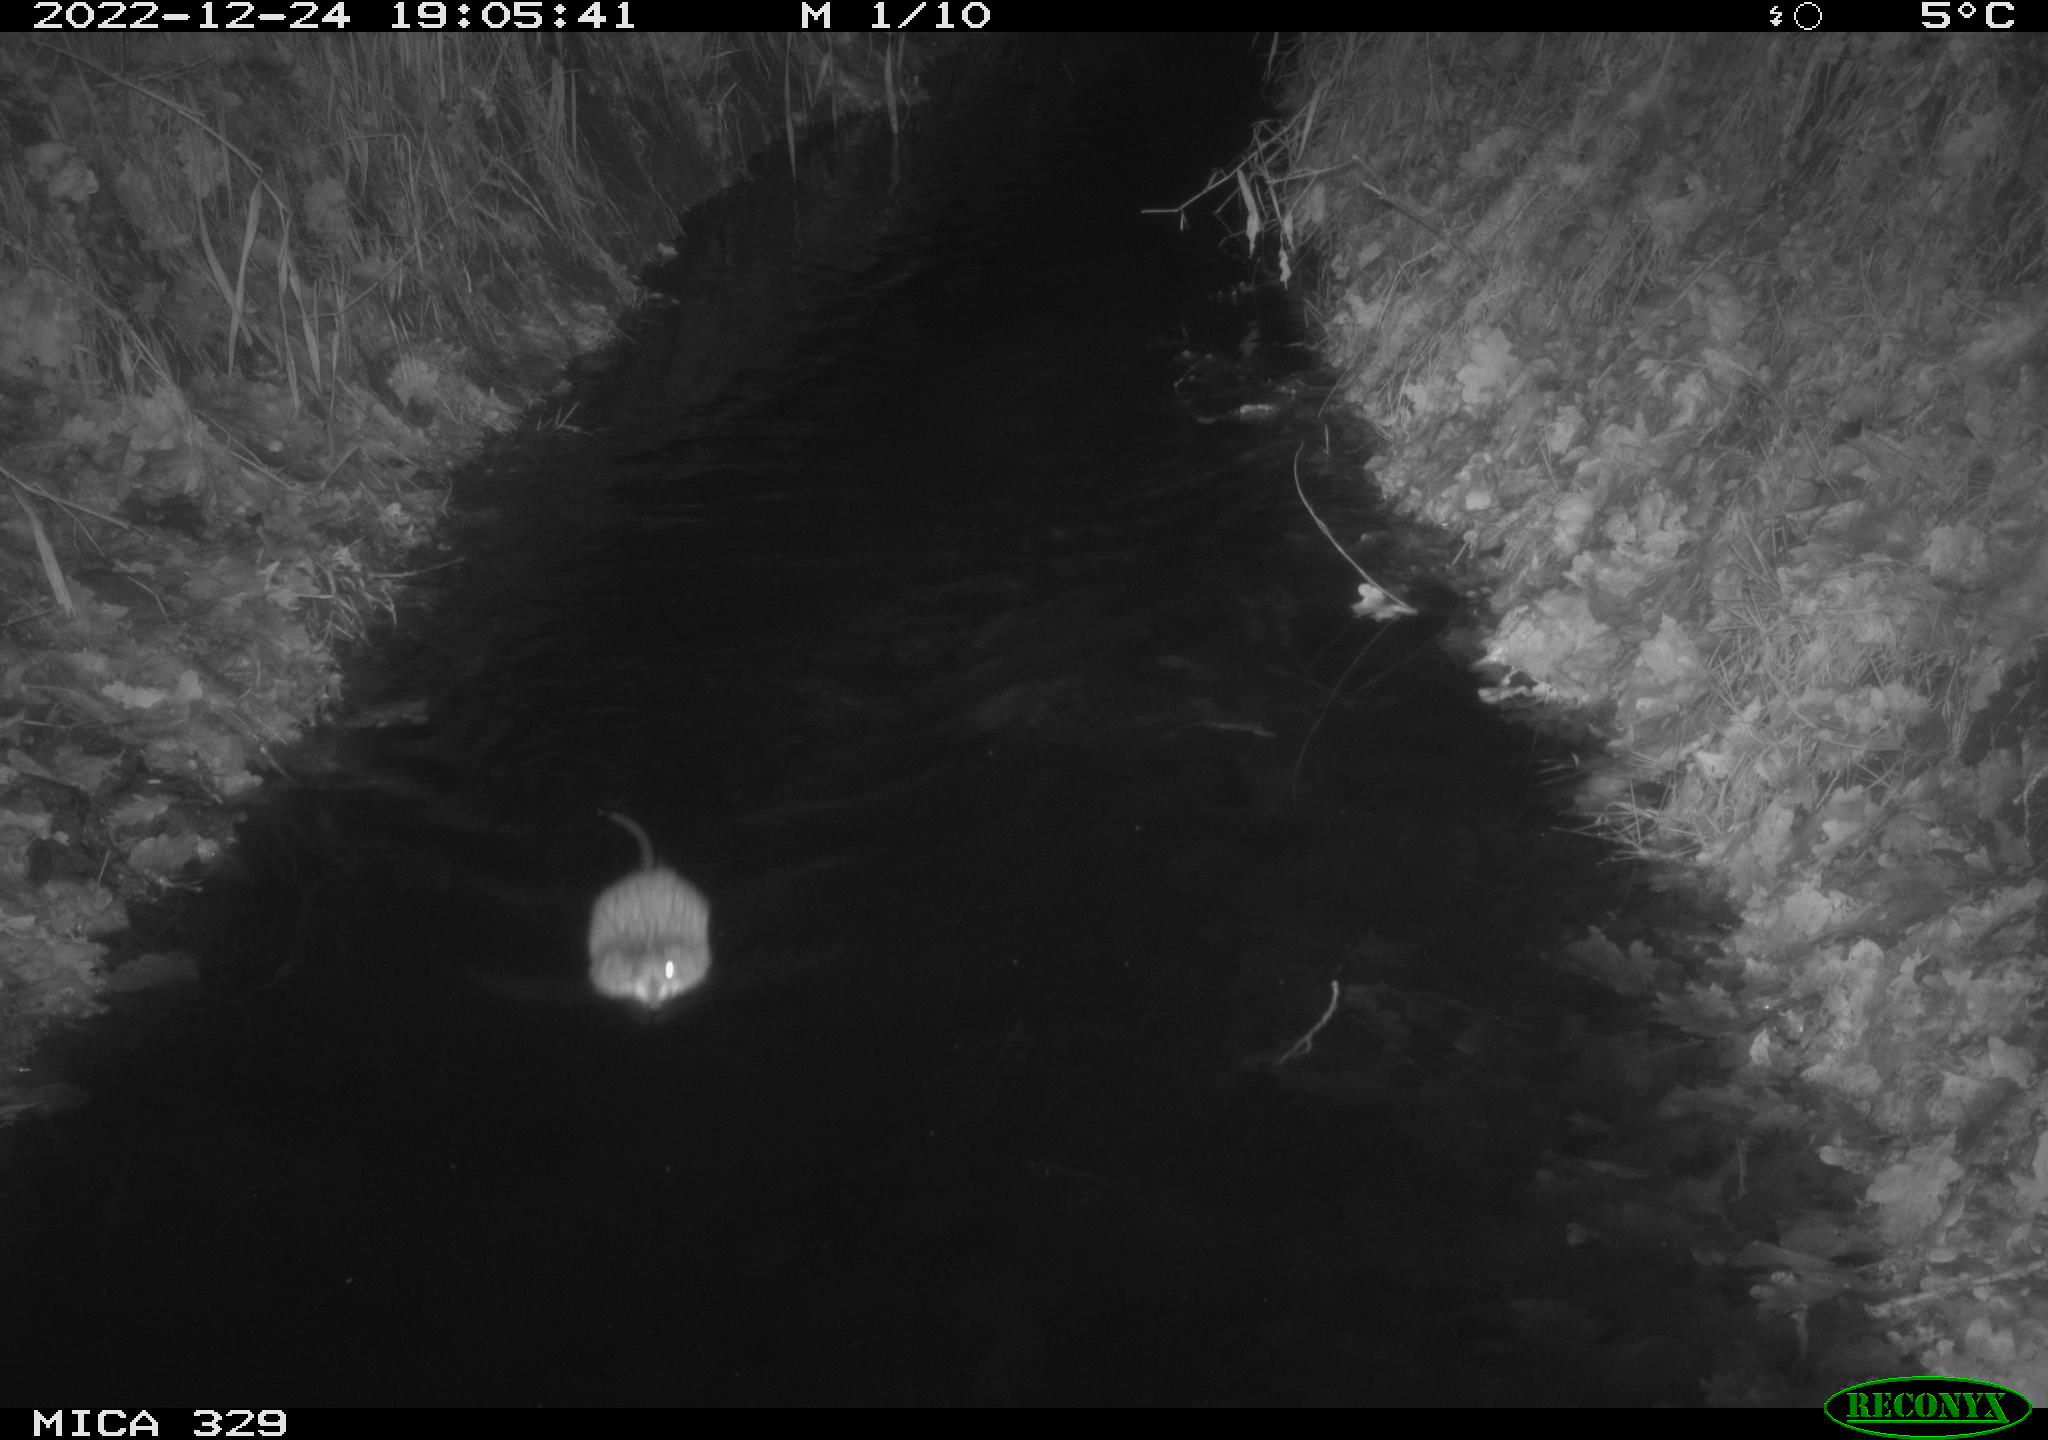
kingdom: Animalia
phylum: Chordata
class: Mammalia
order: Rodentia
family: Cricetidae
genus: Ondatra
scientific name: Ondatra zibethicus
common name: Muskrat
